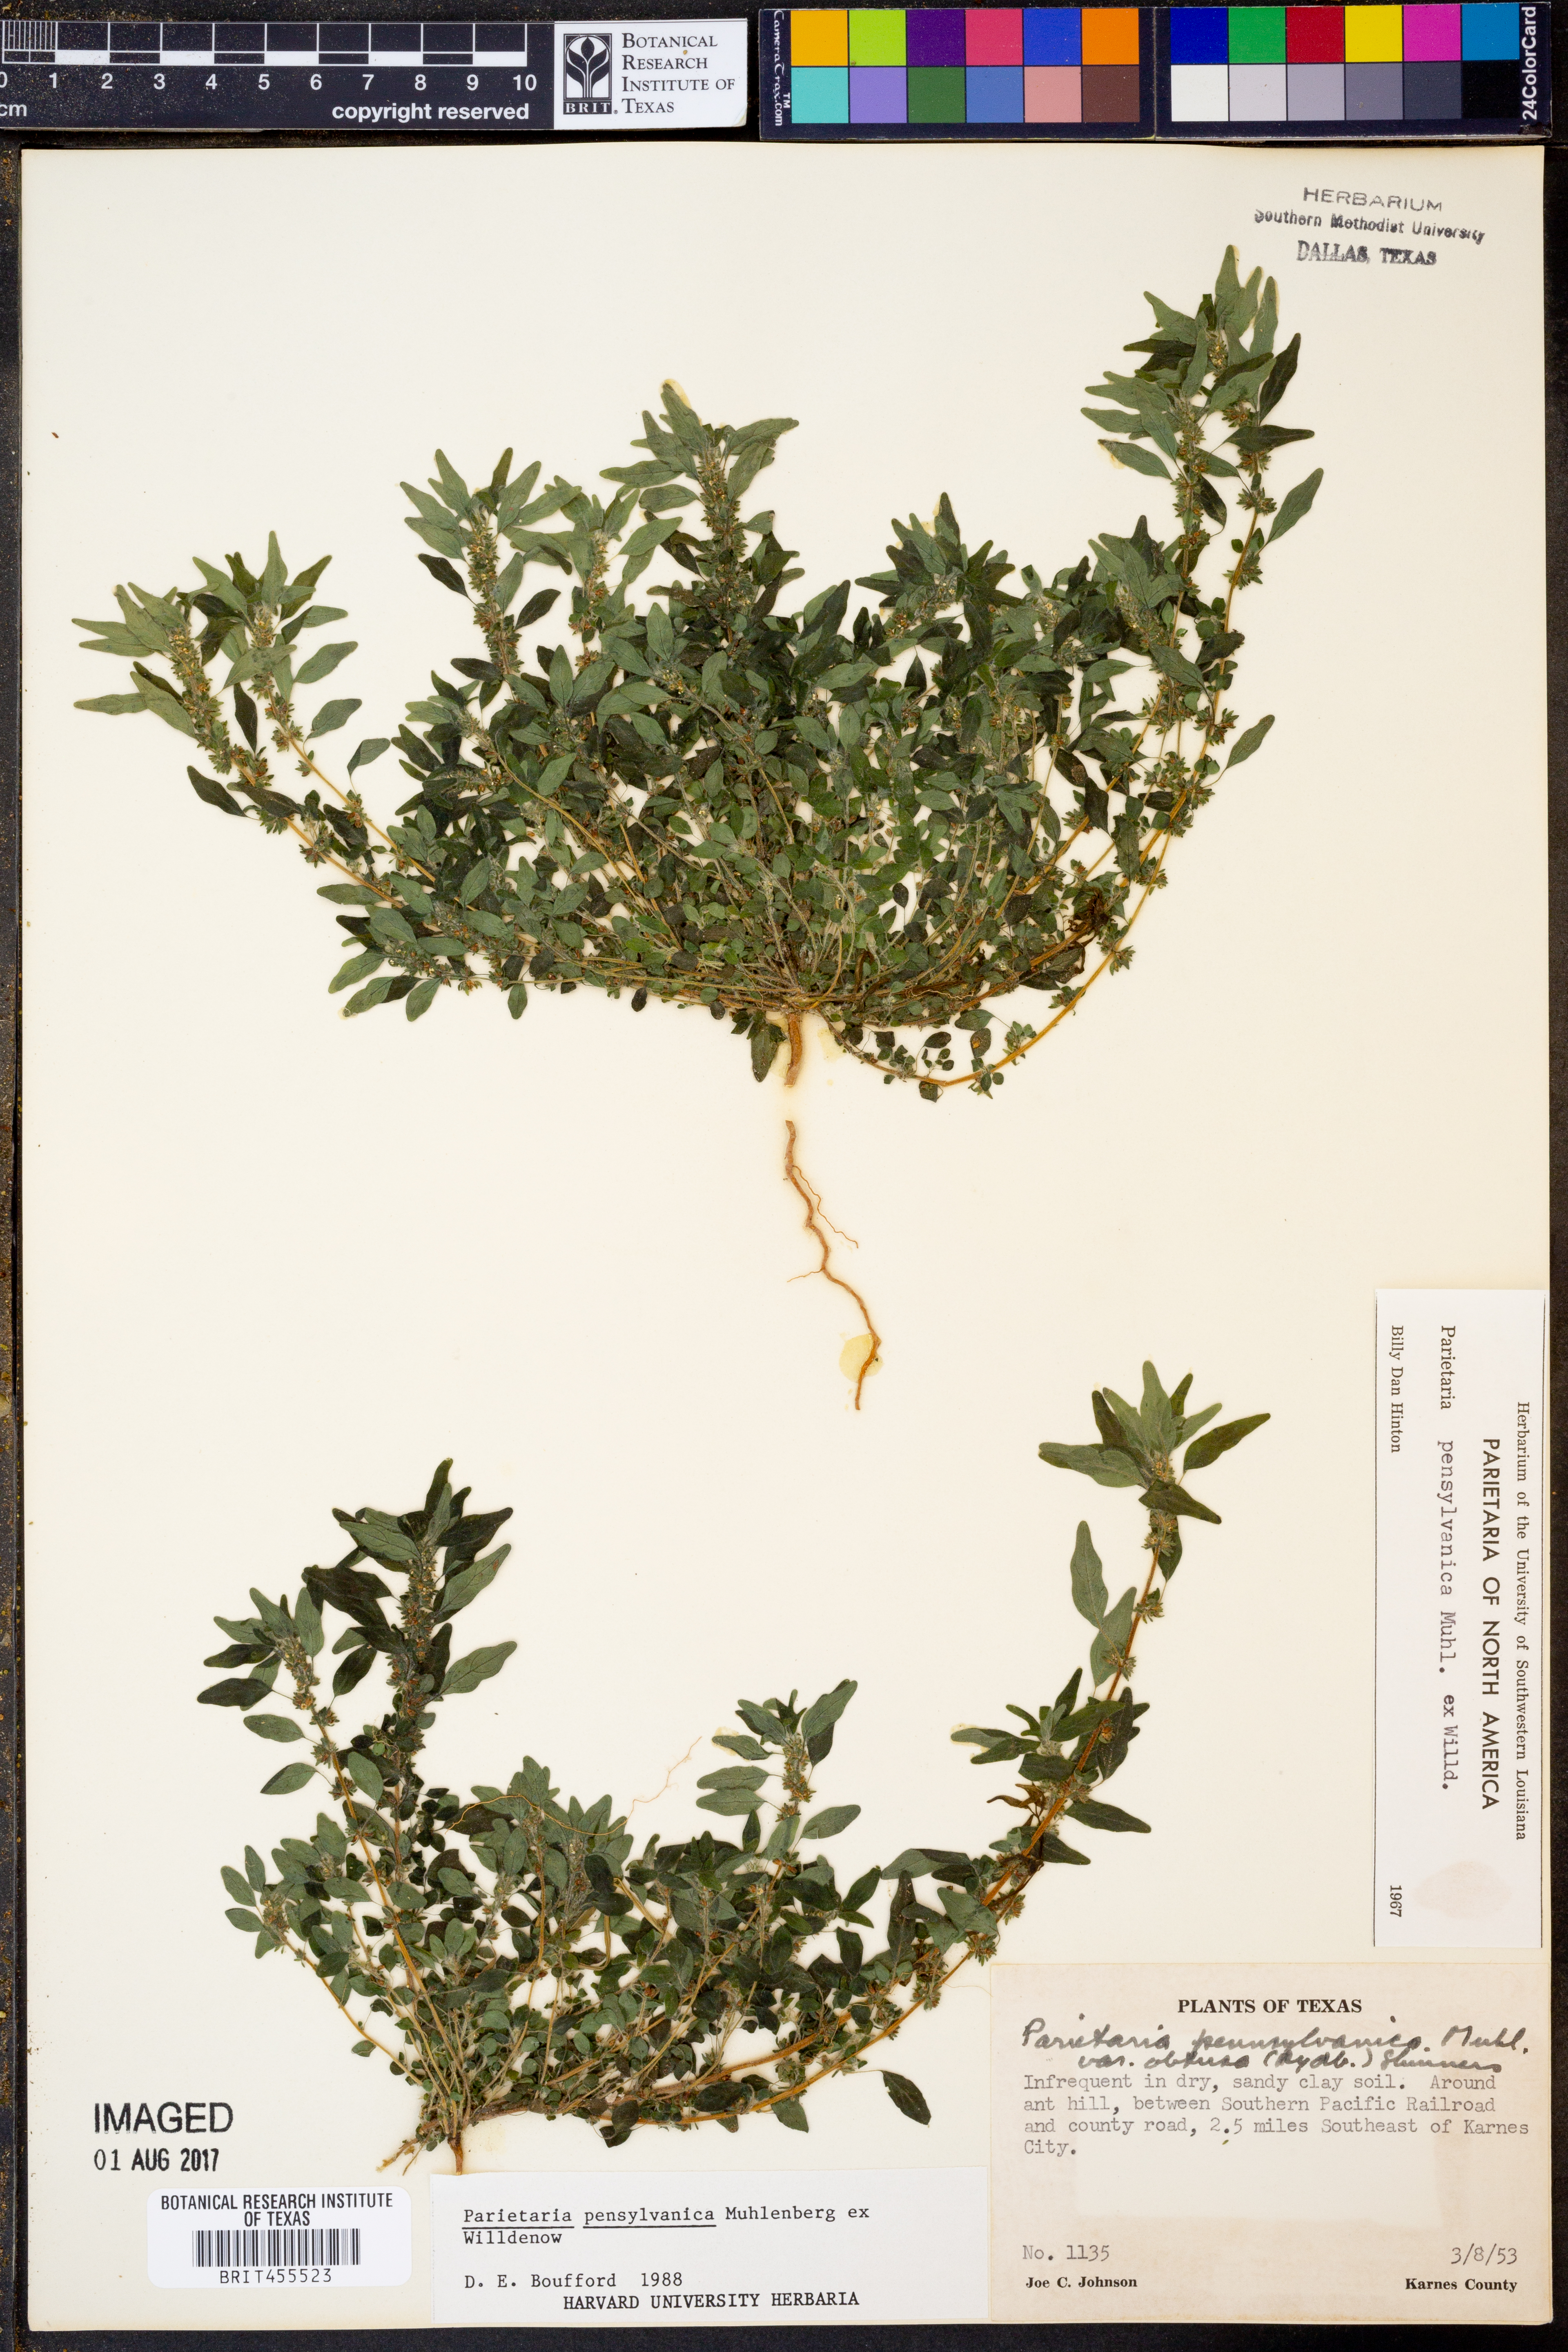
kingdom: Plantae
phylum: Tracheophyta
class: Magnoliopsida
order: Rosales
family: Urticaceae
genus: Parietaria
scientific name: Parietaria pensylvanica
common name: Pennsylvania pellitory
